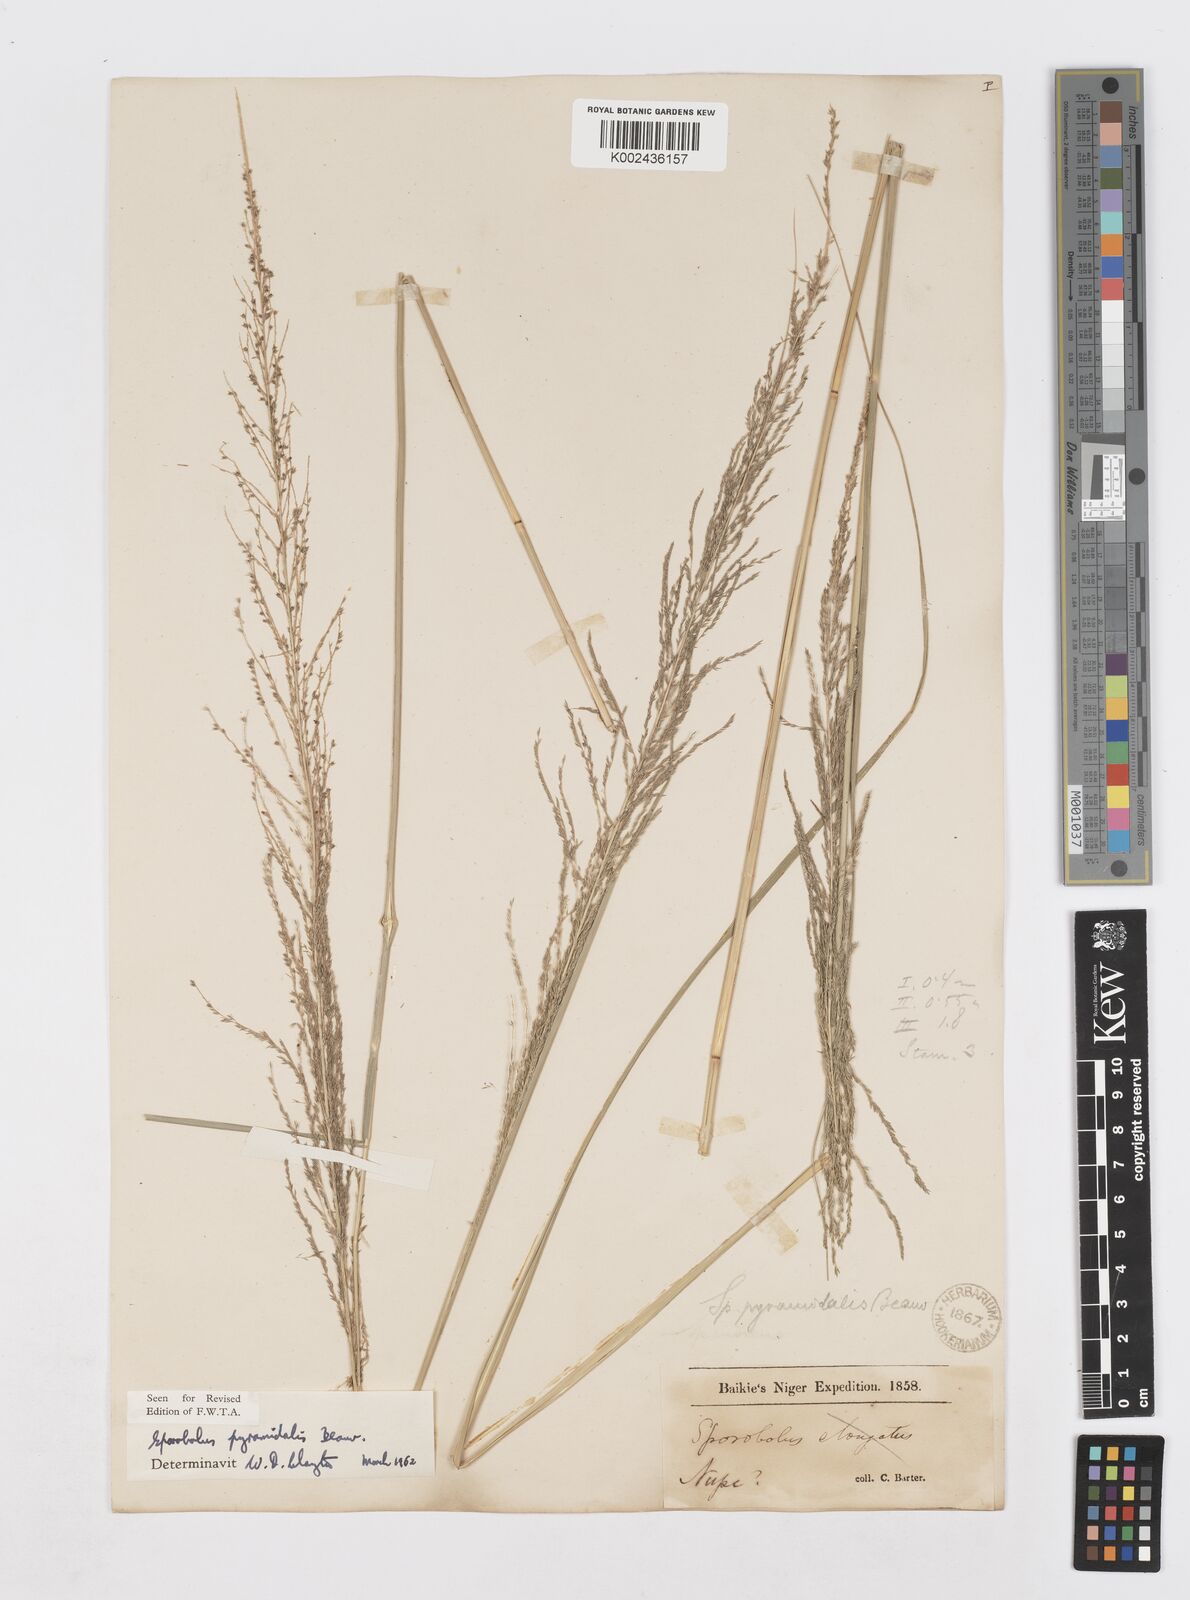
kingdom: Plantae
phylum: Tracheophyta
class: Liliopsida
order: Poales
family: Poaceae
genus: Sporobolus
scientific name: Sporobolus pyramidalis
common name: West indian dropseed
